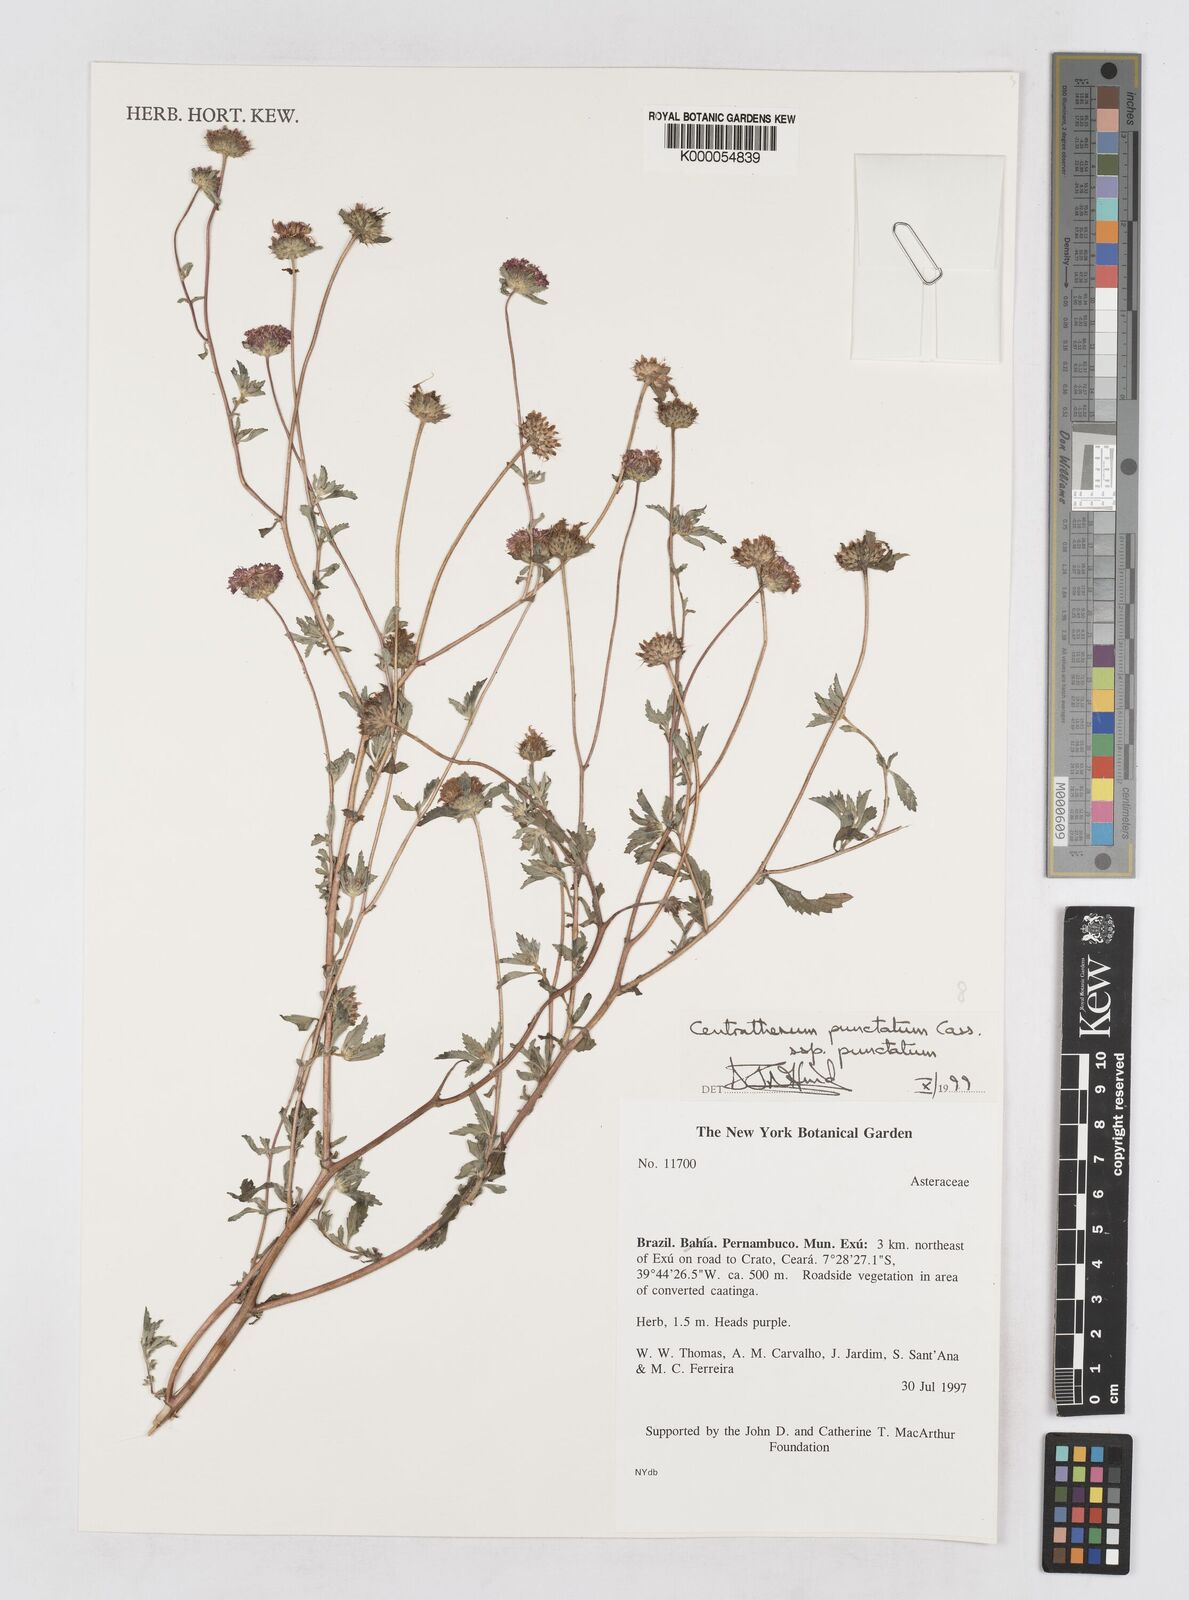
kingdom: Plantae
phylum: Tracheophyta
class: Magnoliopsida
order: Asterales
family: Asteraceae
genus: Centratherum
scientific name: Centratherum punctatum
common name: Larkdaisy
